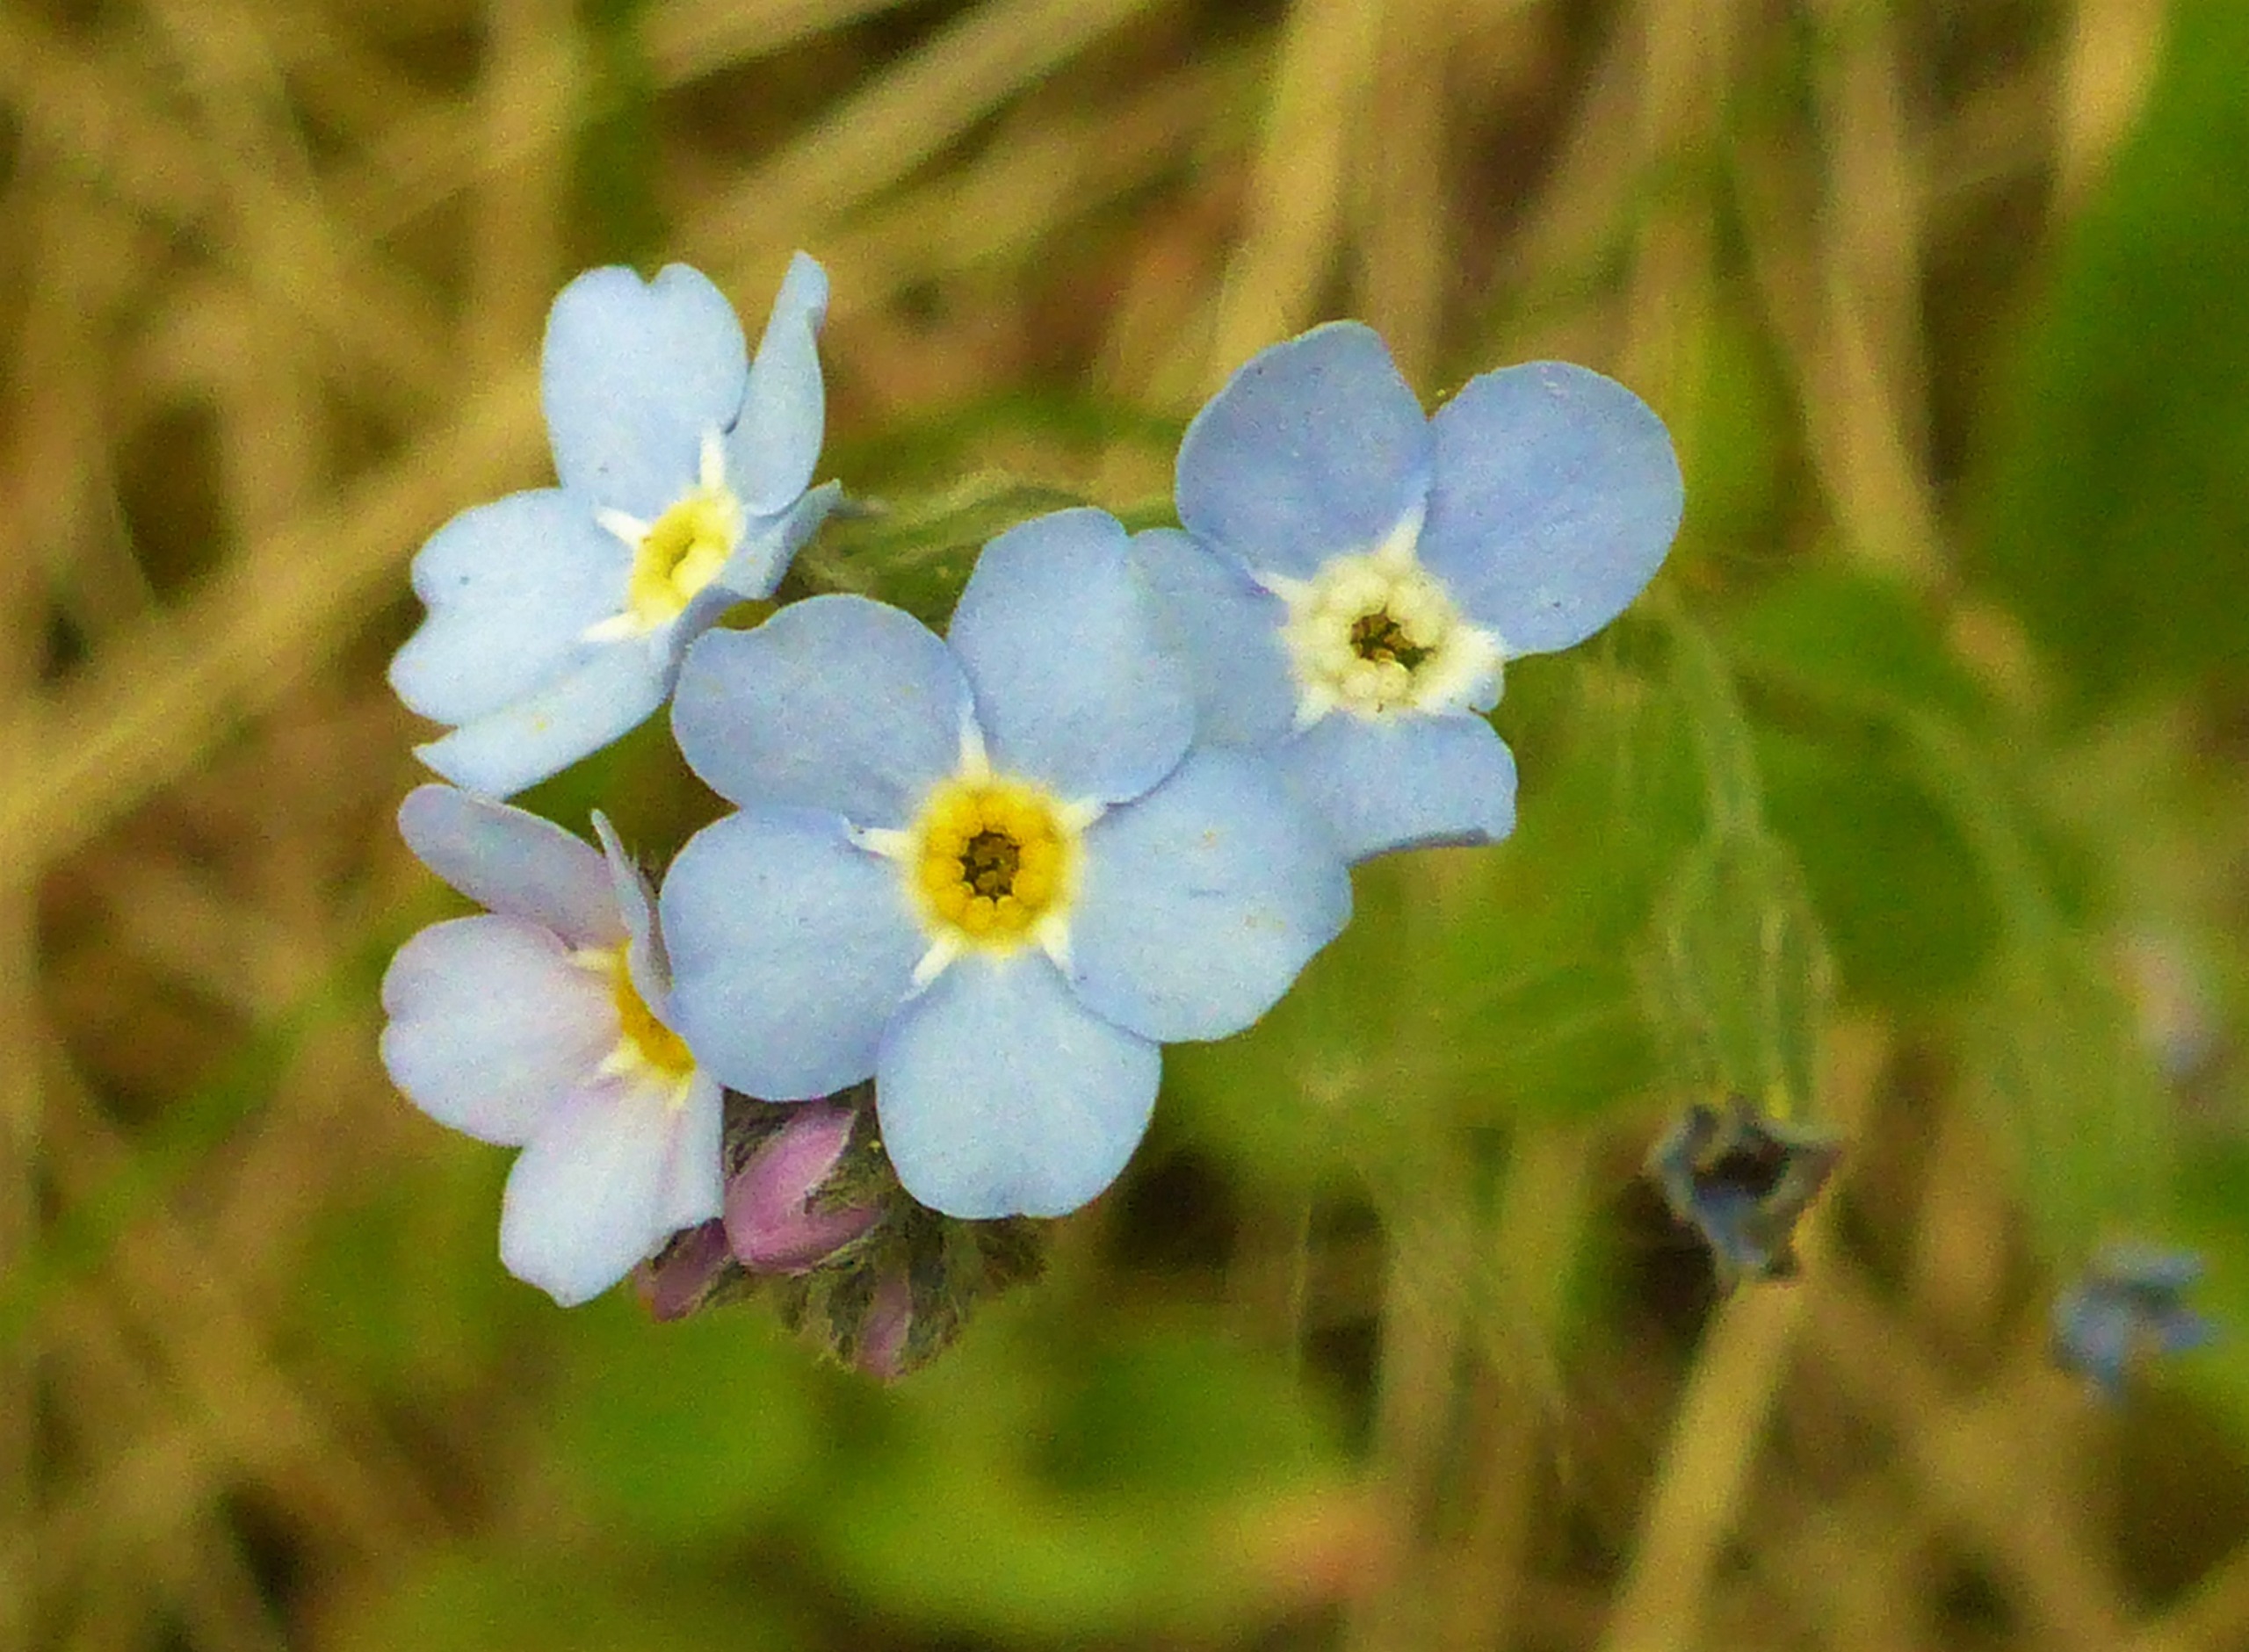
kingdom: Plantae
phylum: Tracheophyta
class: Magnoliopsida
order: Boraginales
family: Boraginaceae
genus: Myosotis
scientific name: Myosotis sylvatica
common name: Skov-forglemmigej
